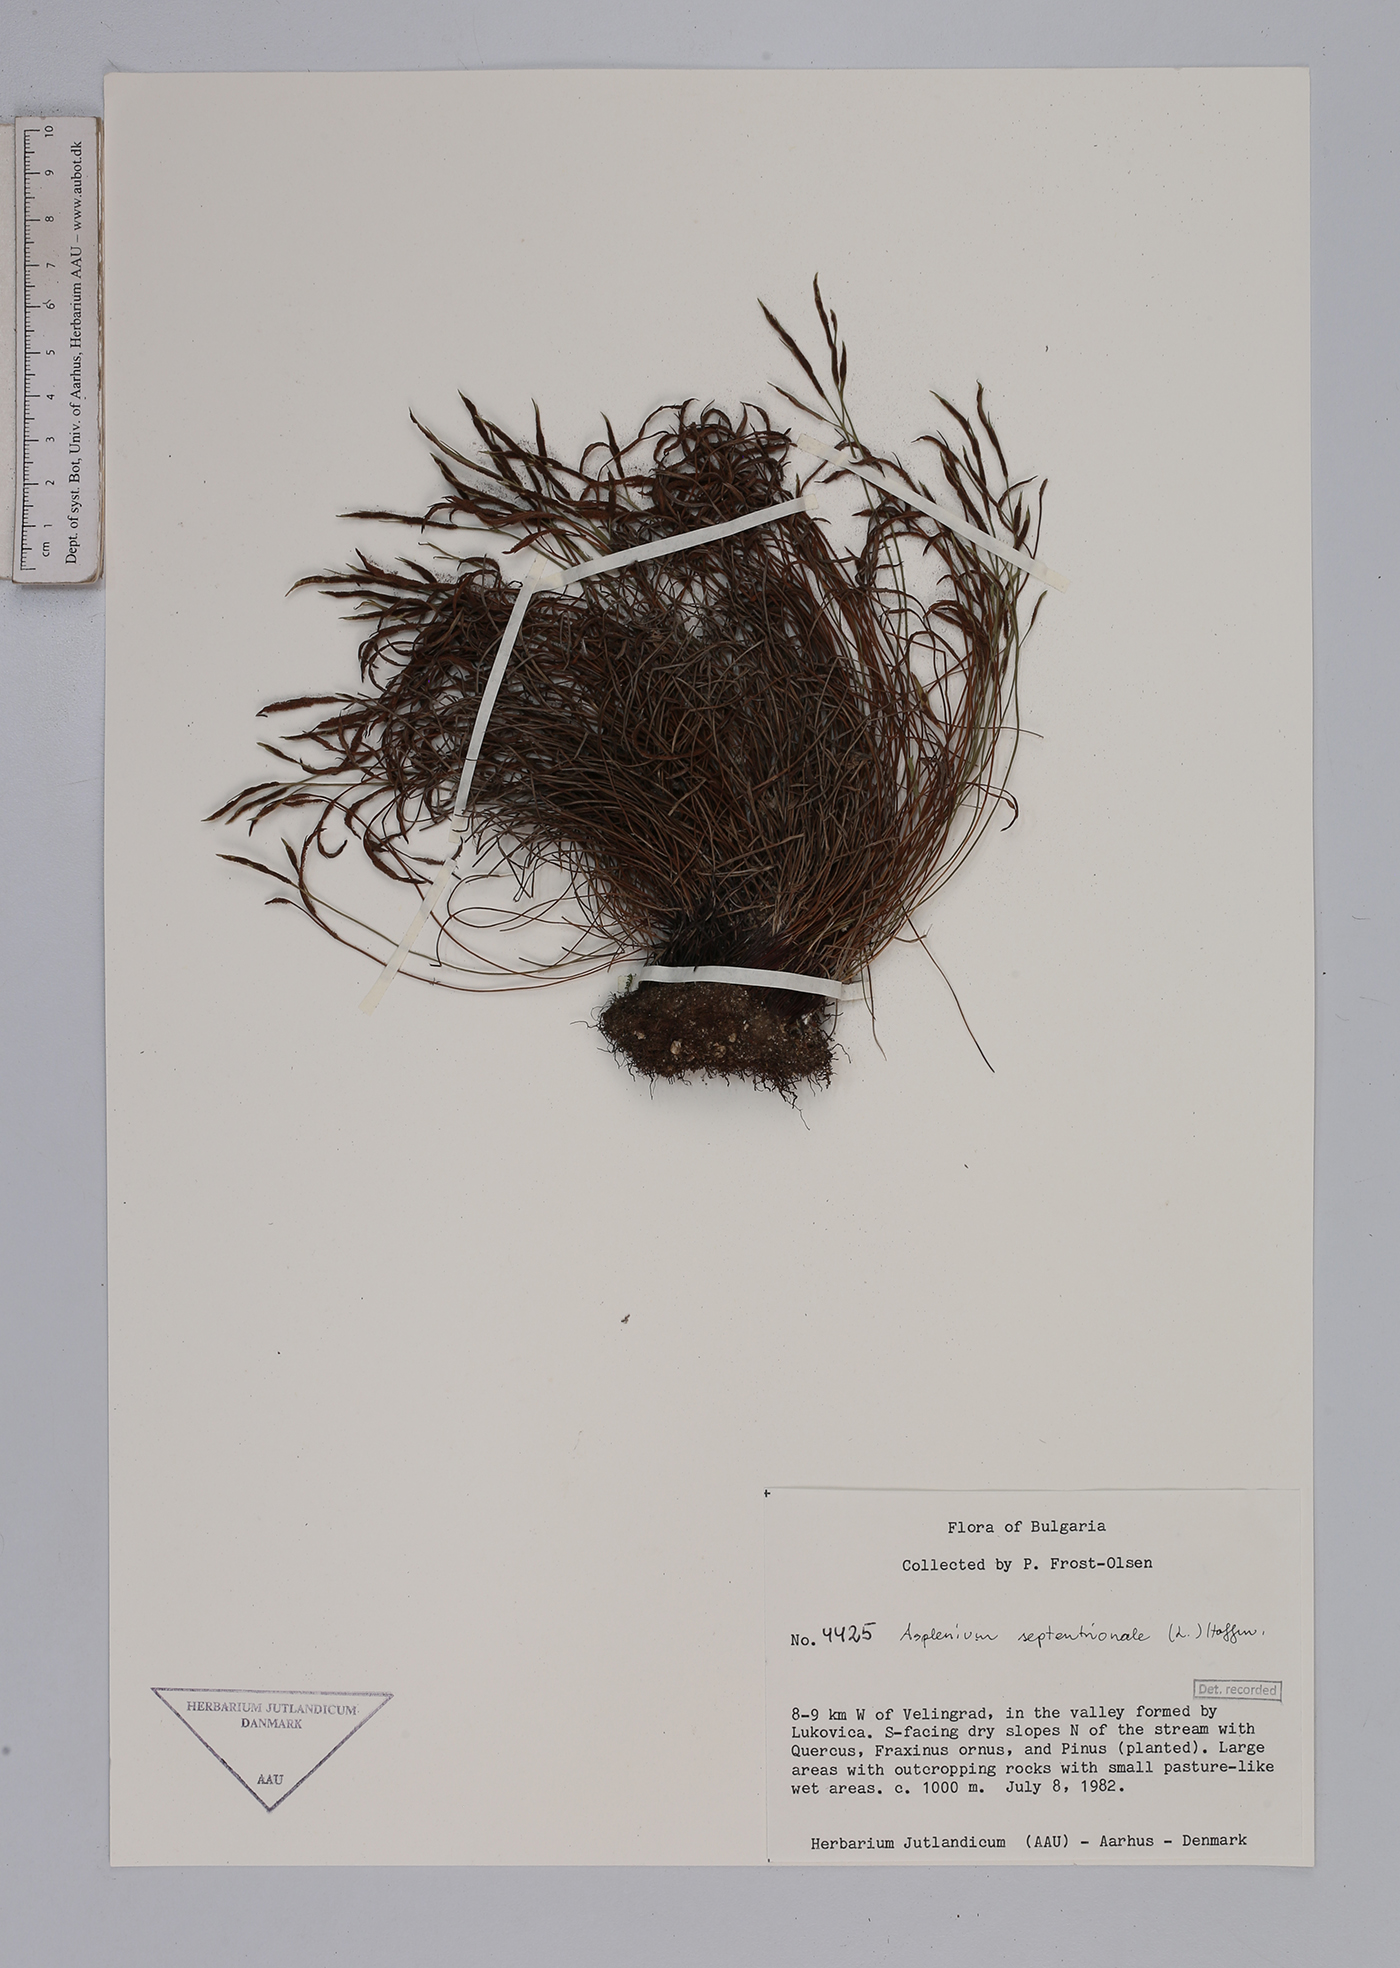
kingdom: Plantae
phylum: Tracheophyta
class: Polypodiopsida
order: Polypodiales
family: Aspleniaceae
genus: Asplenium
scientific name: Asplenium septentrionale
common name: Forked spleenwort
